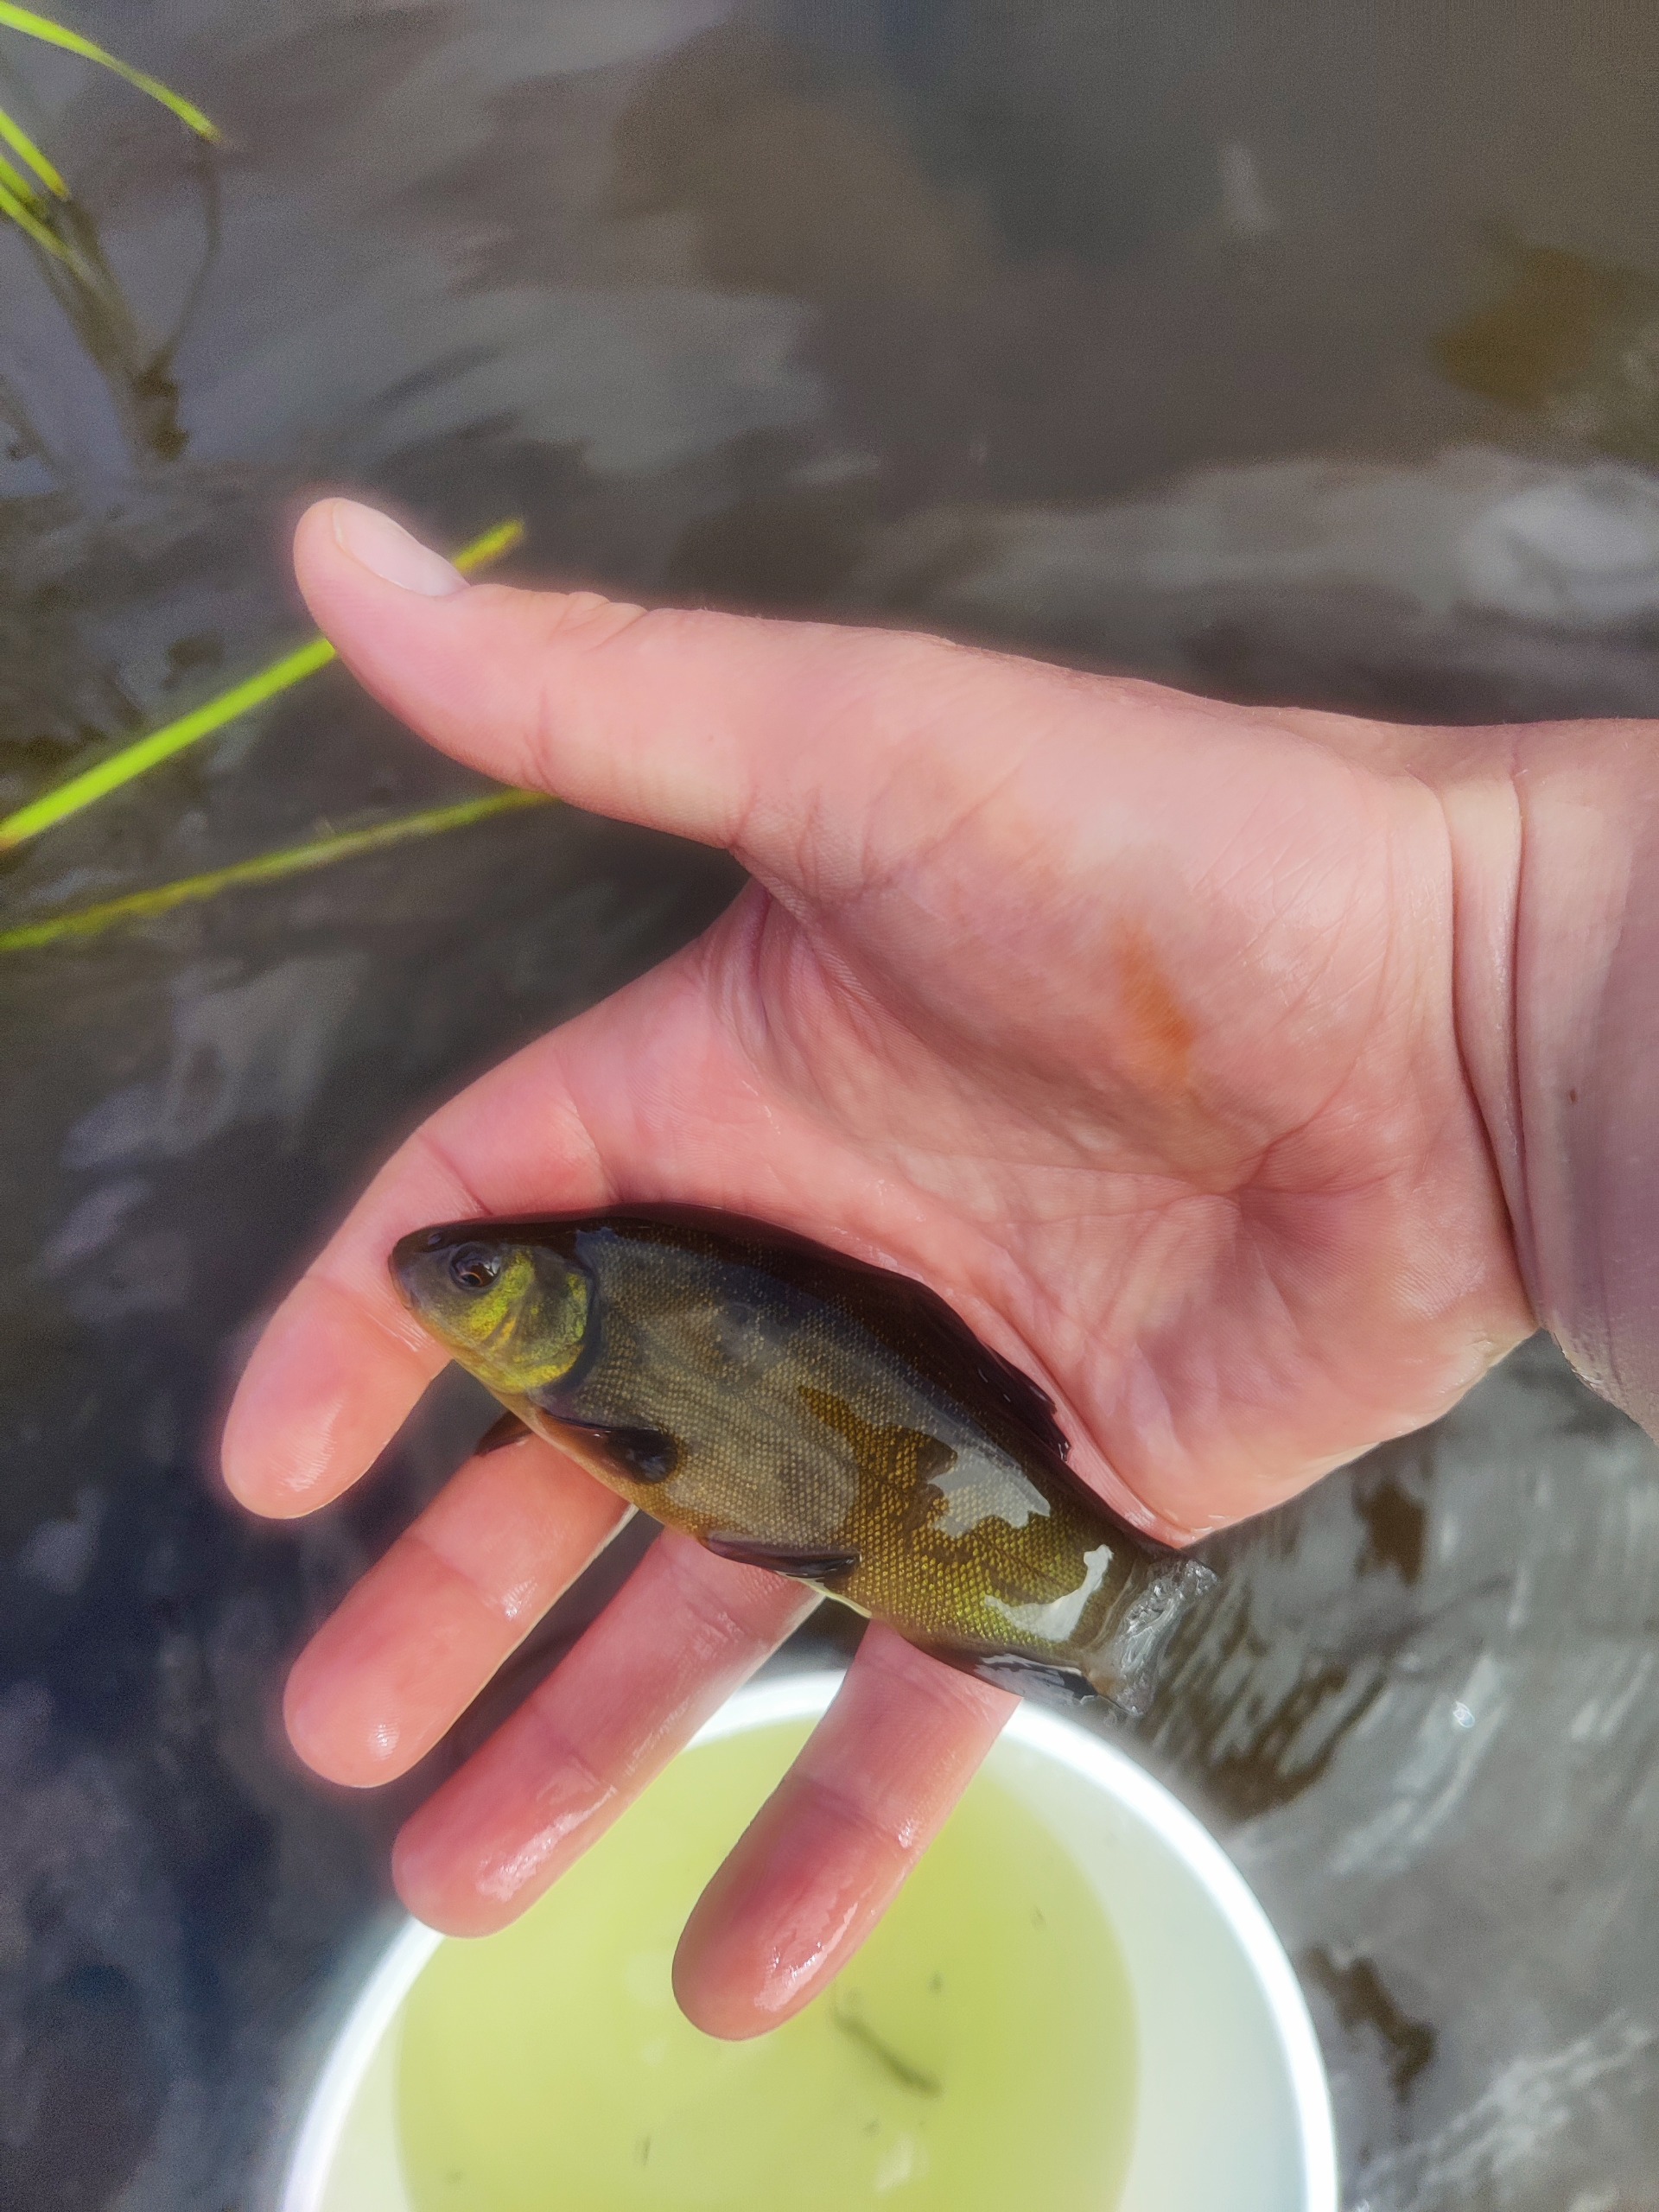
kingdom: Animalia
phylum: Chordata
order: Cypriniformes
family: Cyprinidae
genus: Tinca
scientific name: Tinca tinca
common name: Suder
